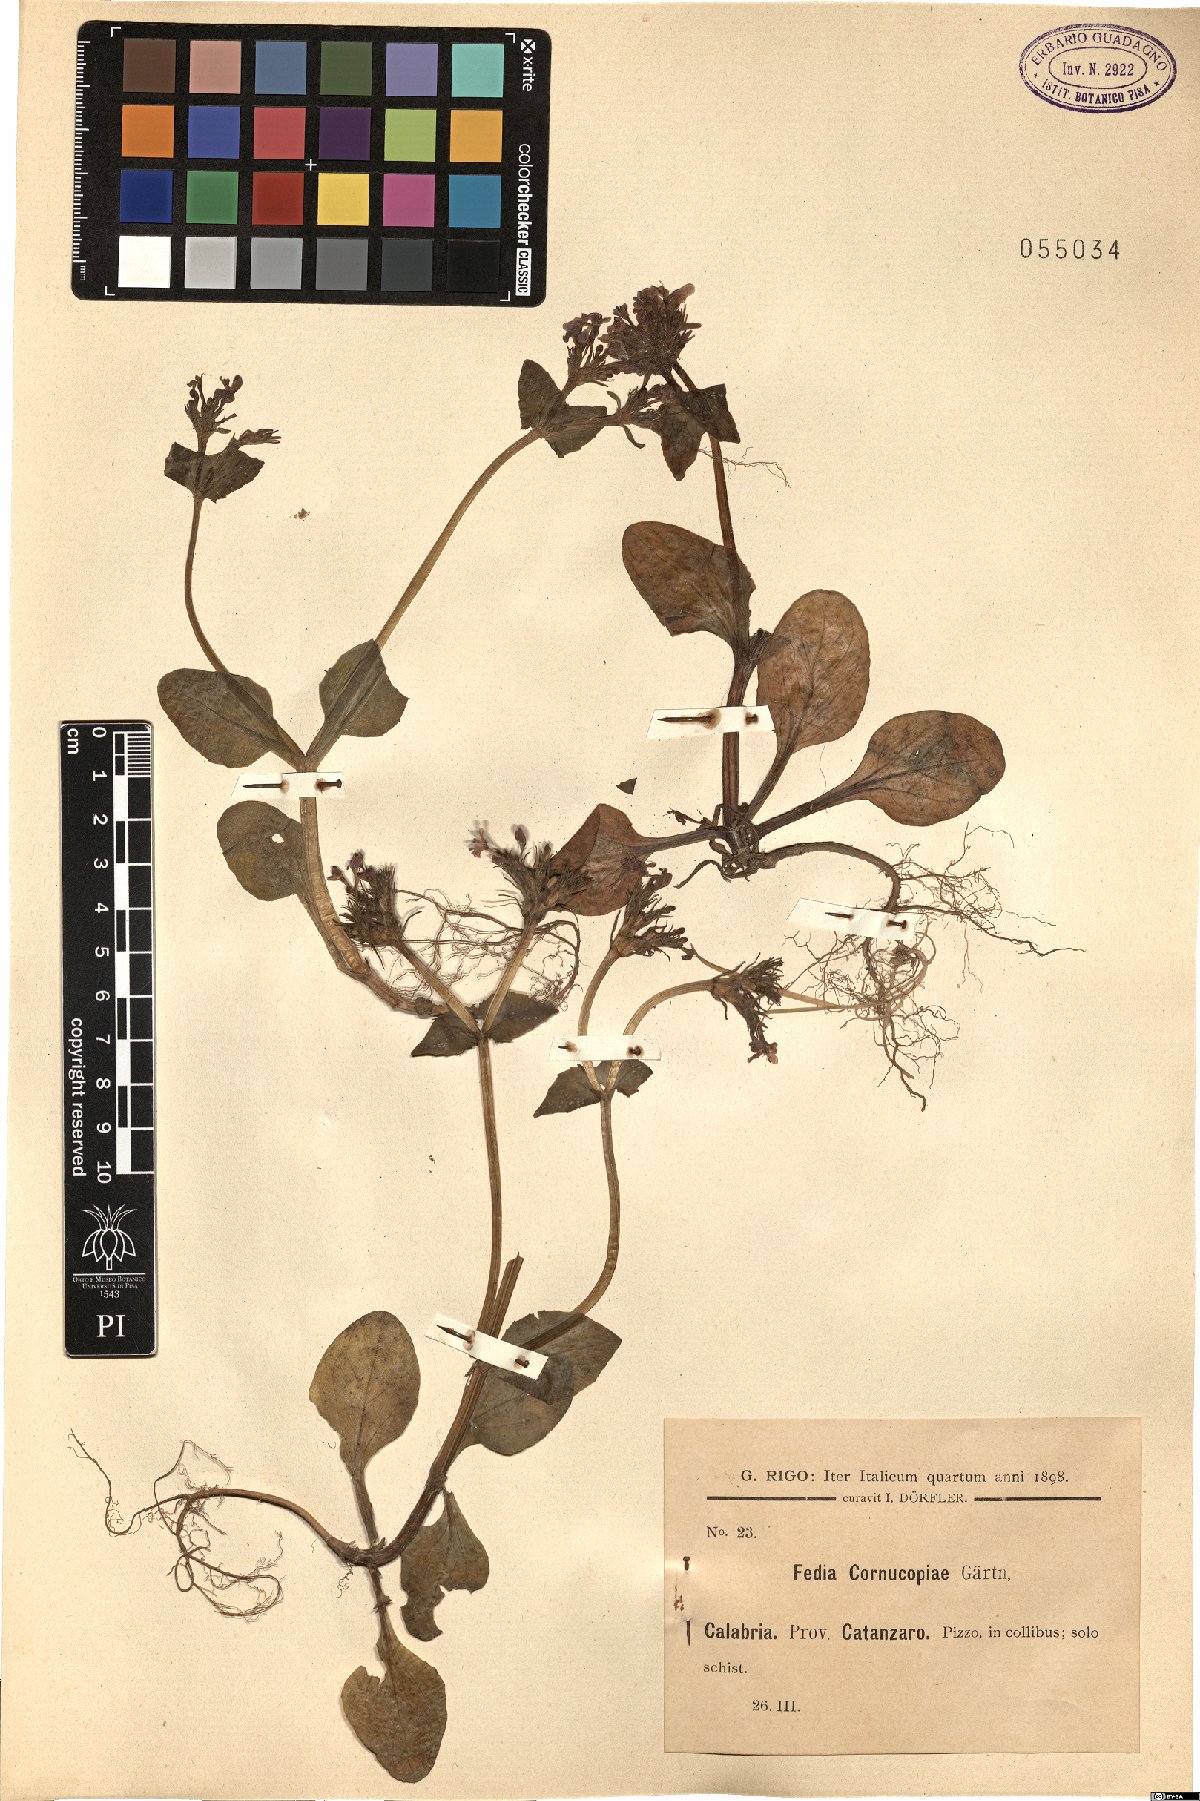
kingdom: Plantae
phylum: Tracheophyta
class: Magnoliopsida
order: Dipsacales
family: Caprifoliaceae
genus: Fedia
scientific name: Fedia cornucopiae
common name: Horn-of-plenty
